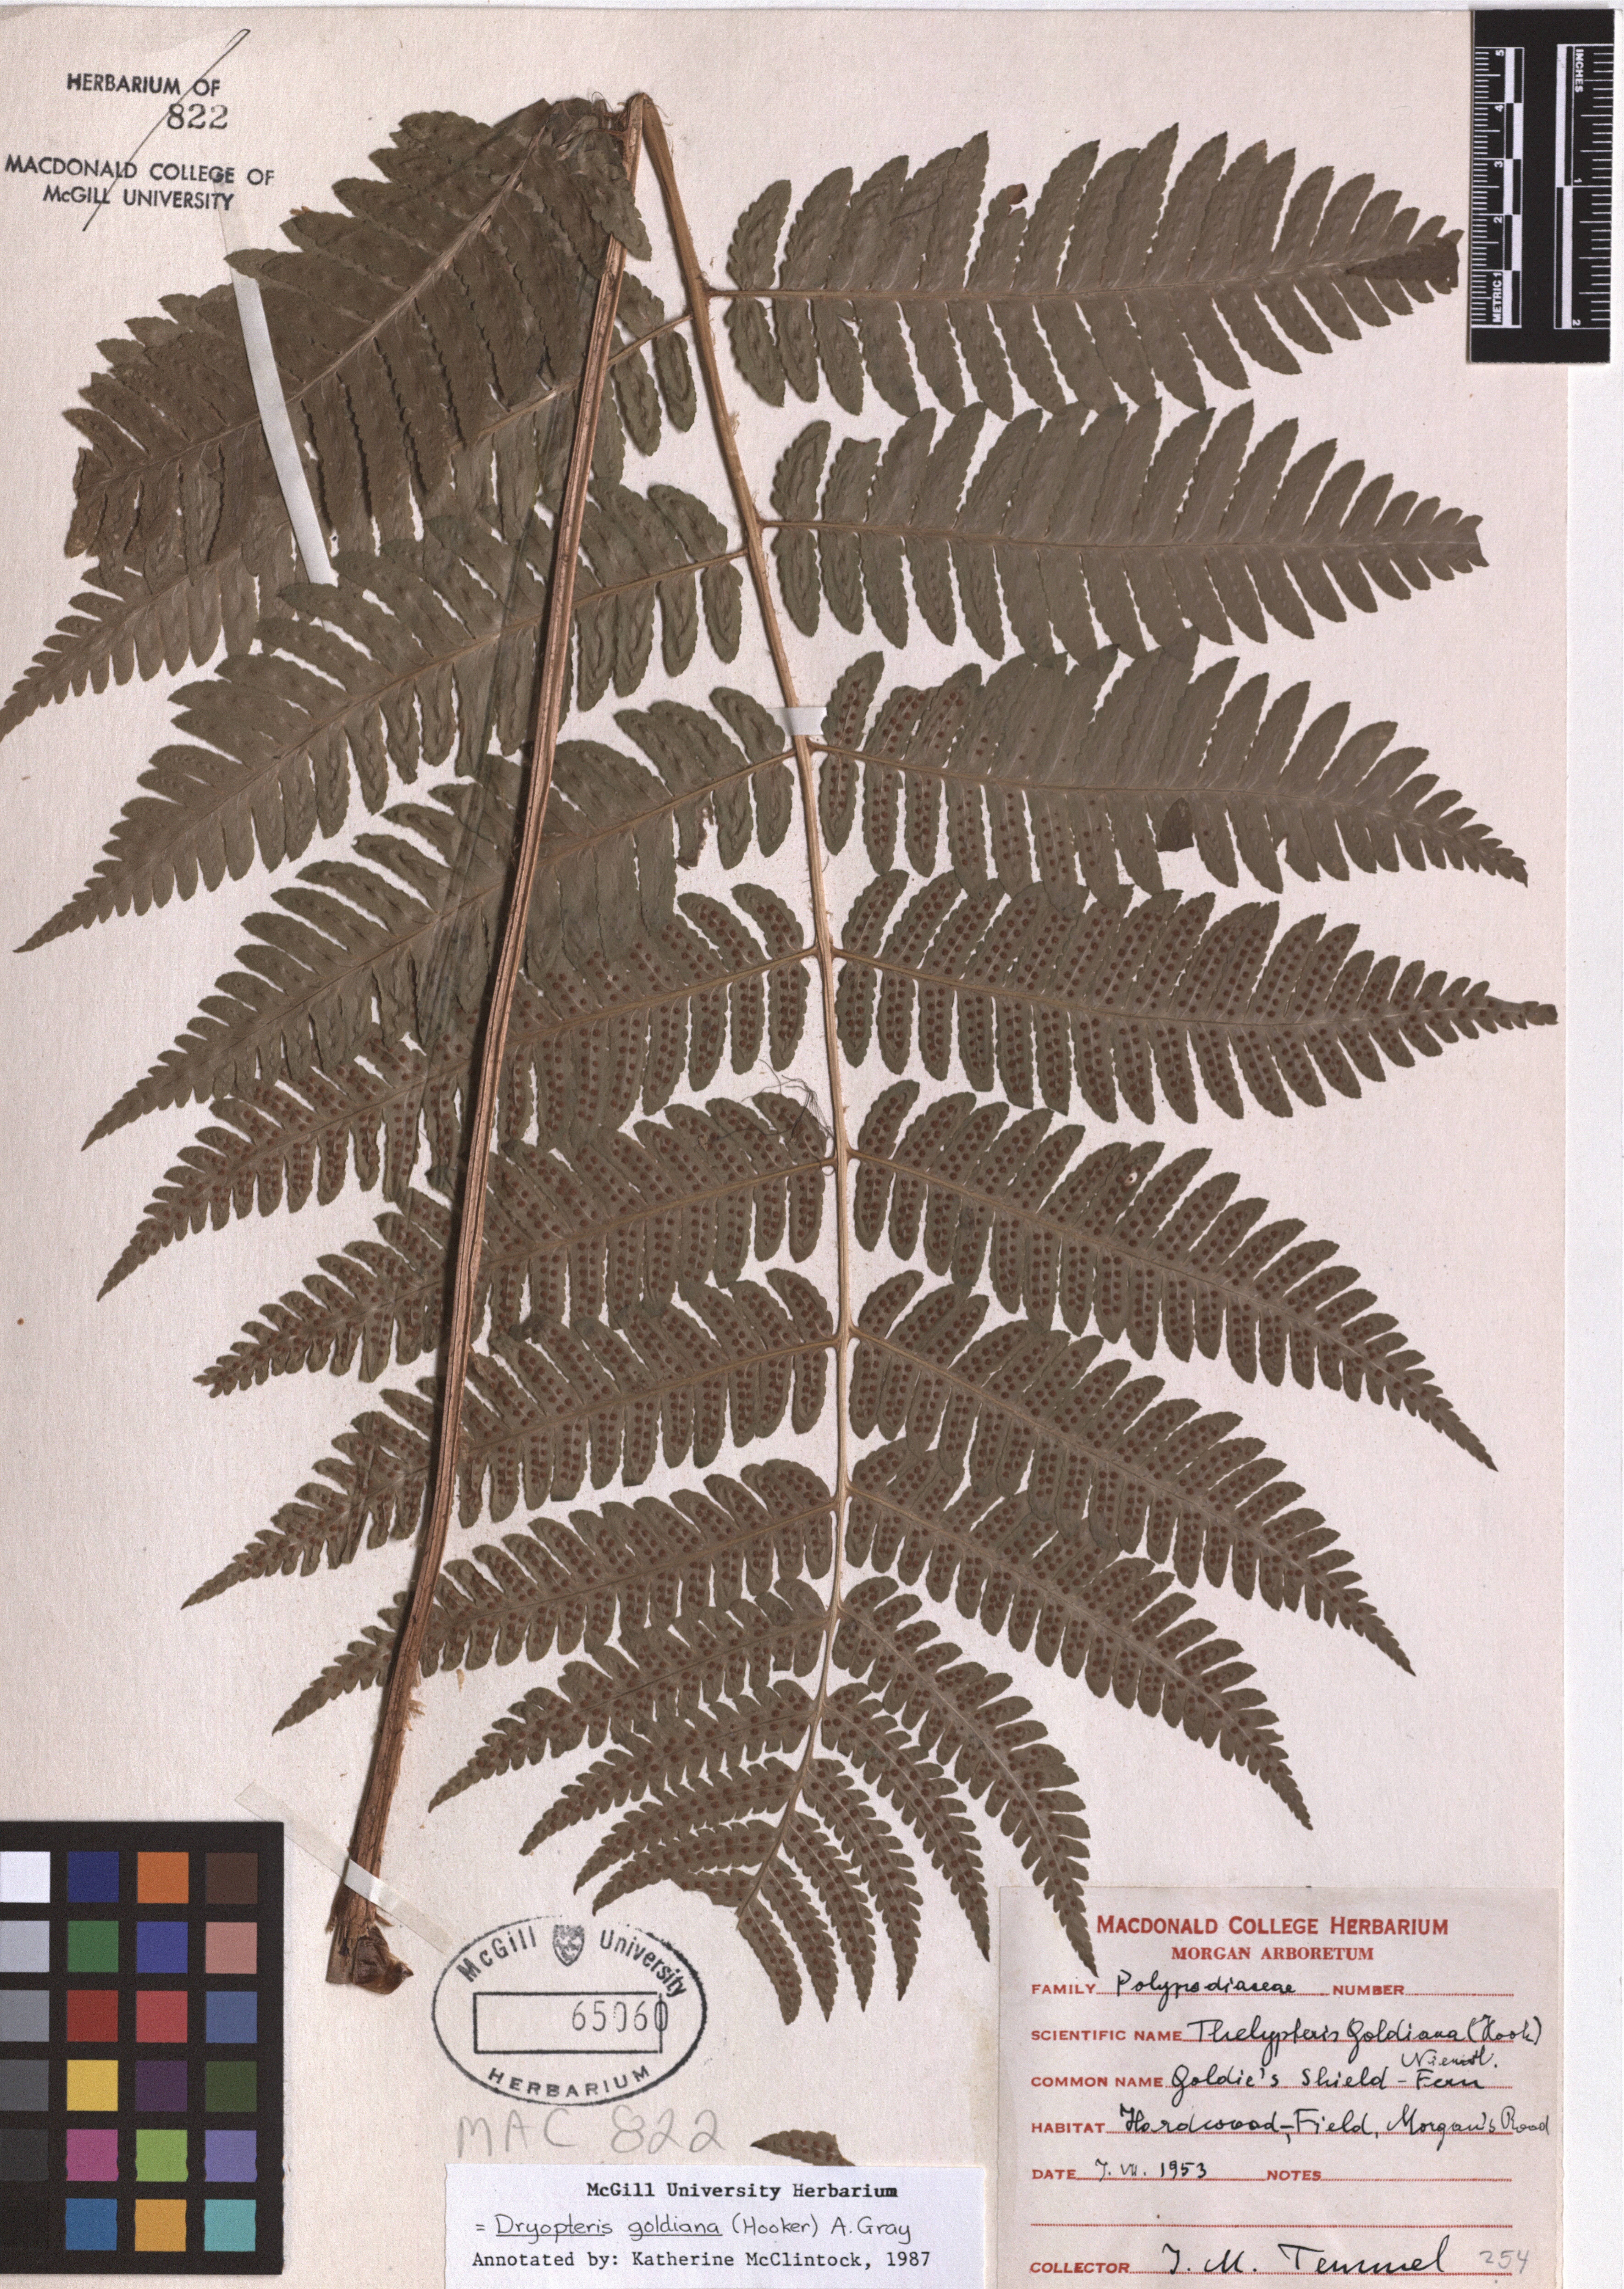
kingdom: Plantae
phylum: Tracheophyta
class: Polypodiopsida
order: Polypodiales
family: Dryopteridaceae
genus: Dryopteris
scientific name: Dryopteris goeldiana
